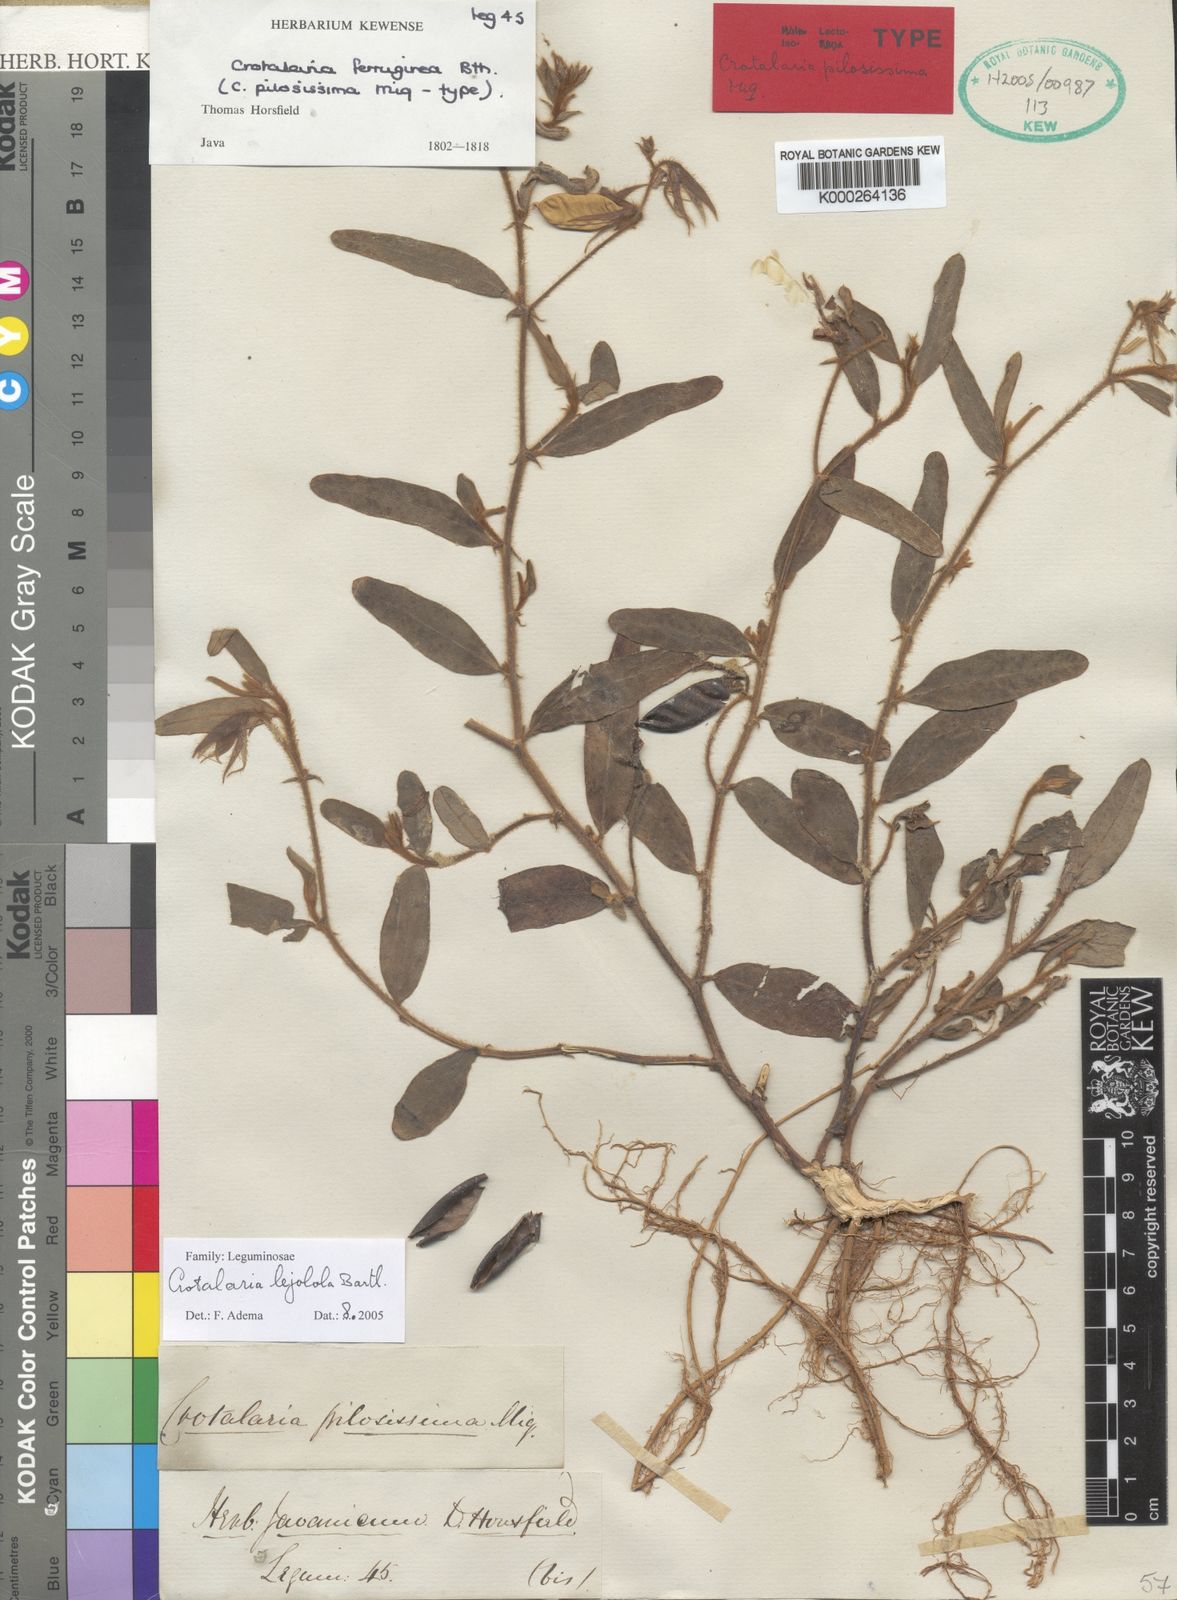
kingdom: Plantae
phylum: Tracheophyta
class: Magnoliopsida
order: Fabales
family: Fabaceae
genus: Crotalaria
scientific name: Crotalaria lejoloba
